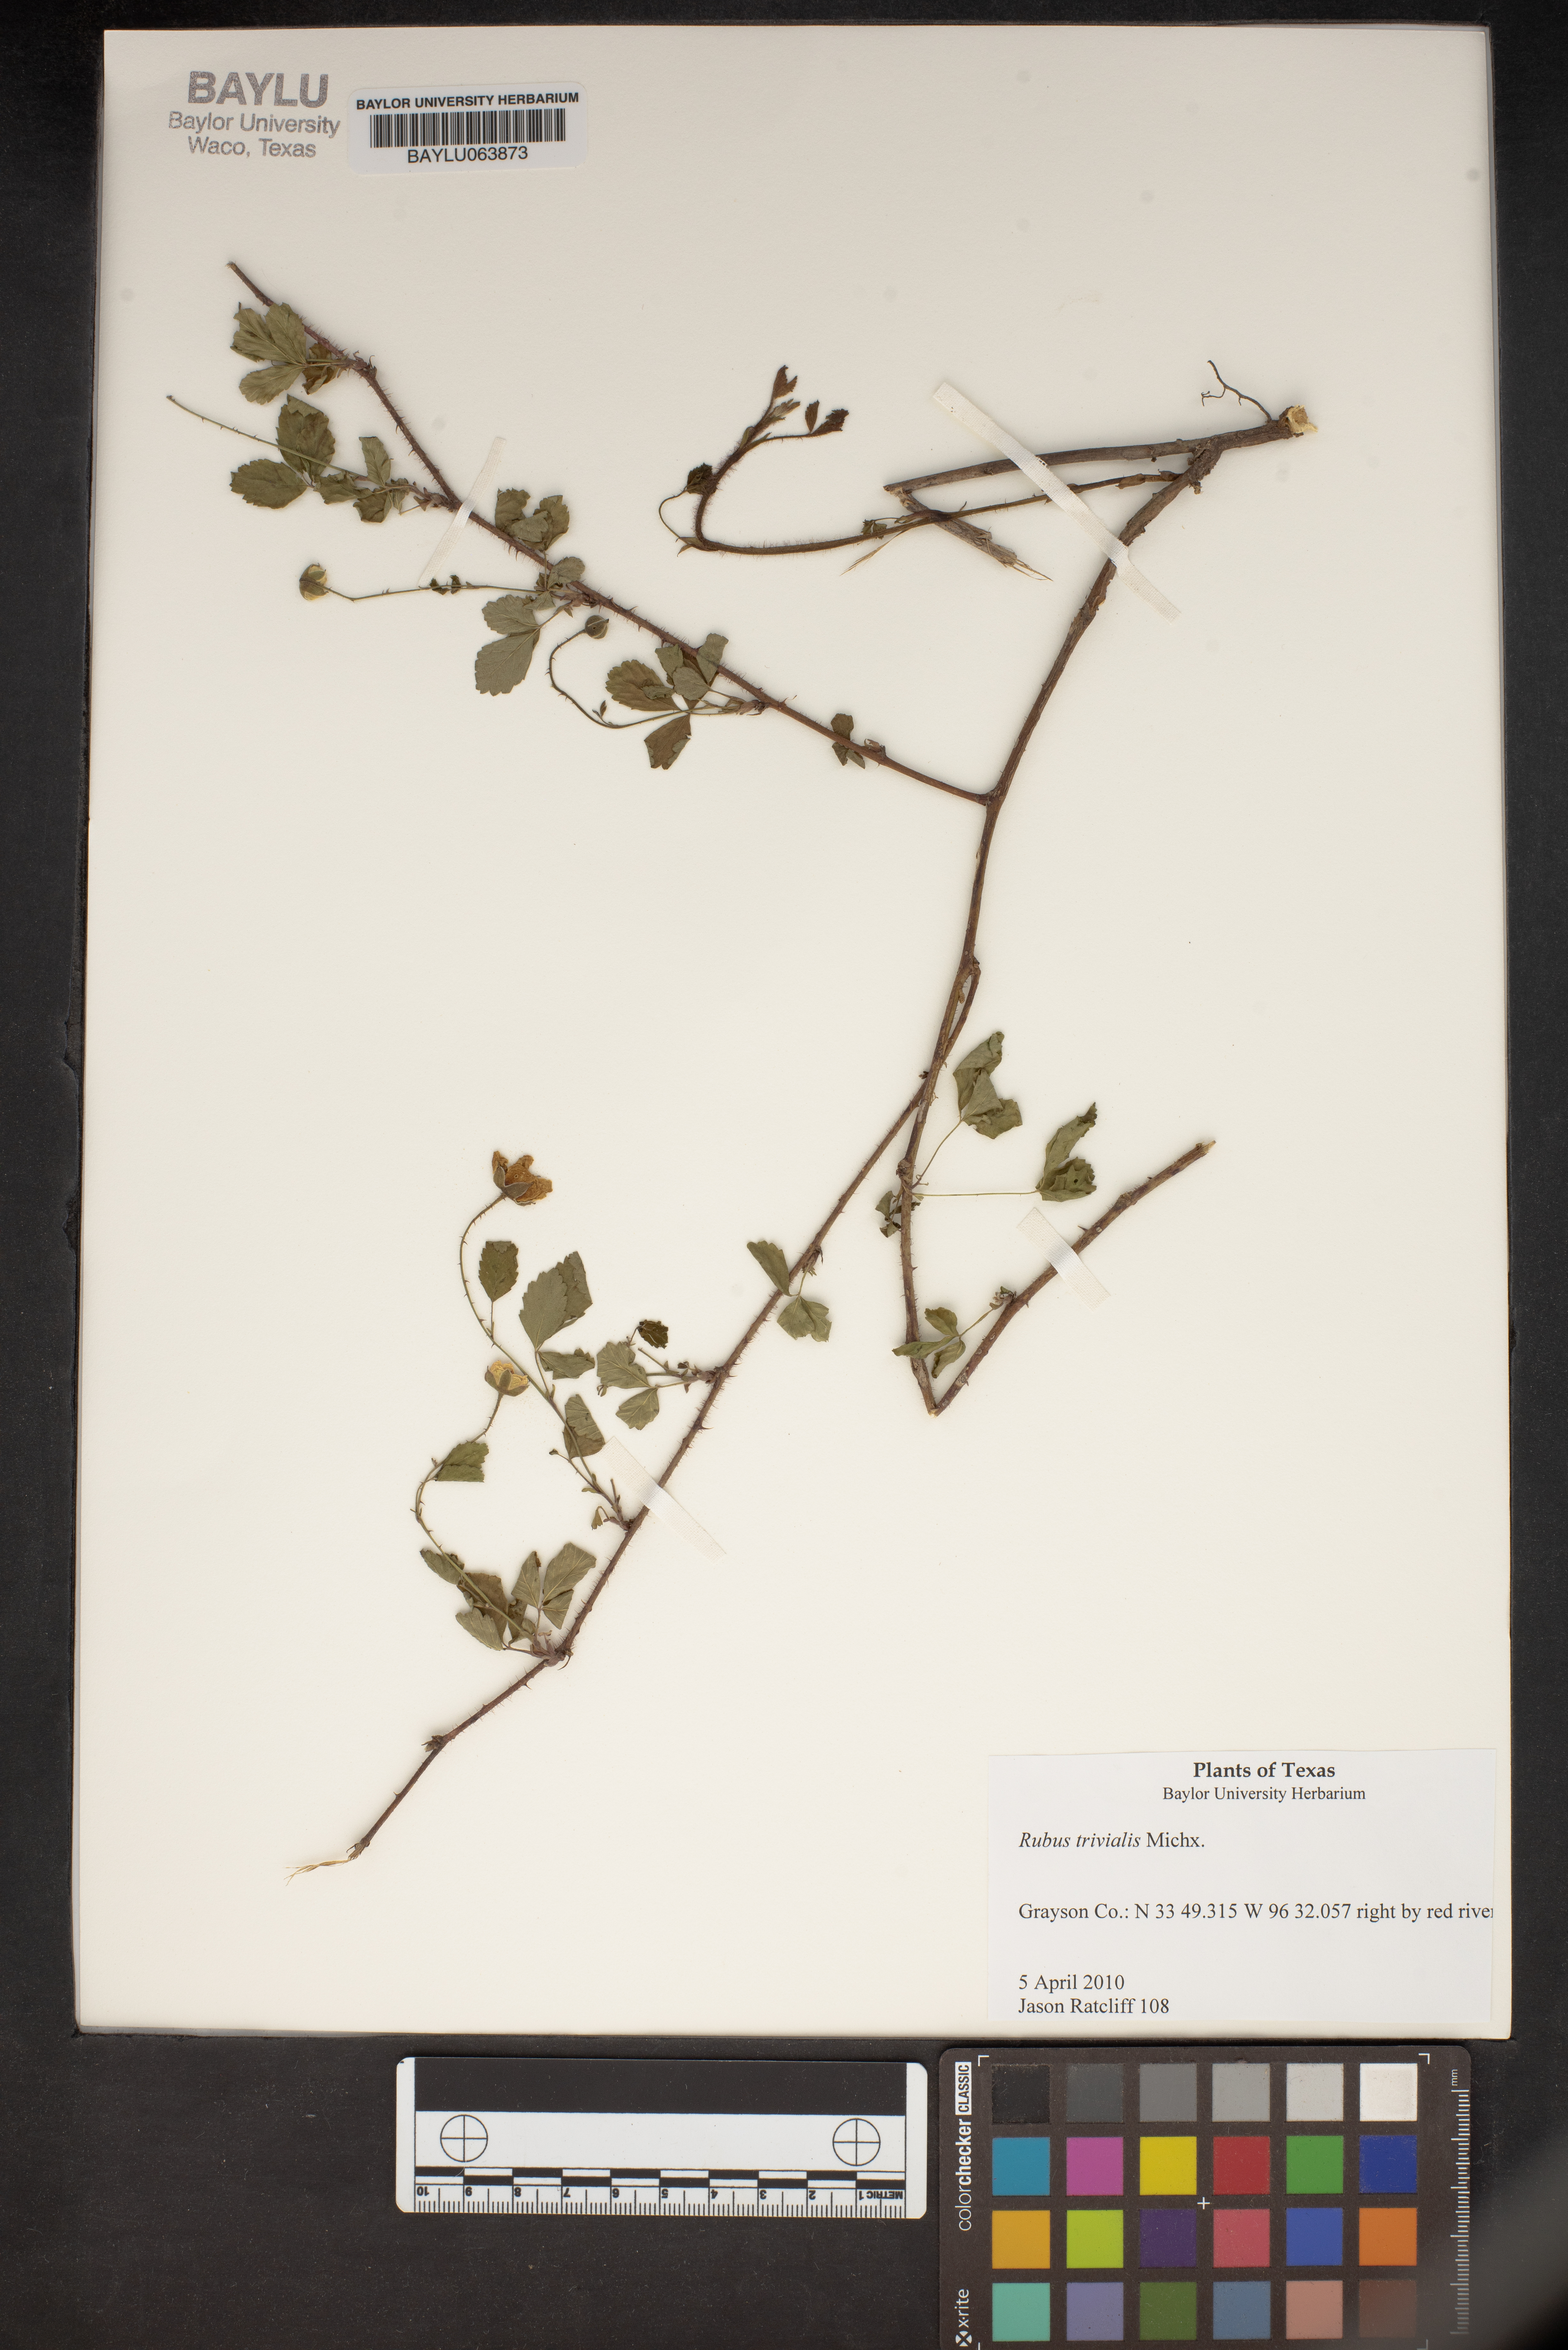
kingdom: Plantae
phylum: Tracheophyta
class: Magnoliopsida
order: Rosales
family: Rosaceae
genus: Rubus
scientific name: Rubus trivialis
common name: Southern dewberry
